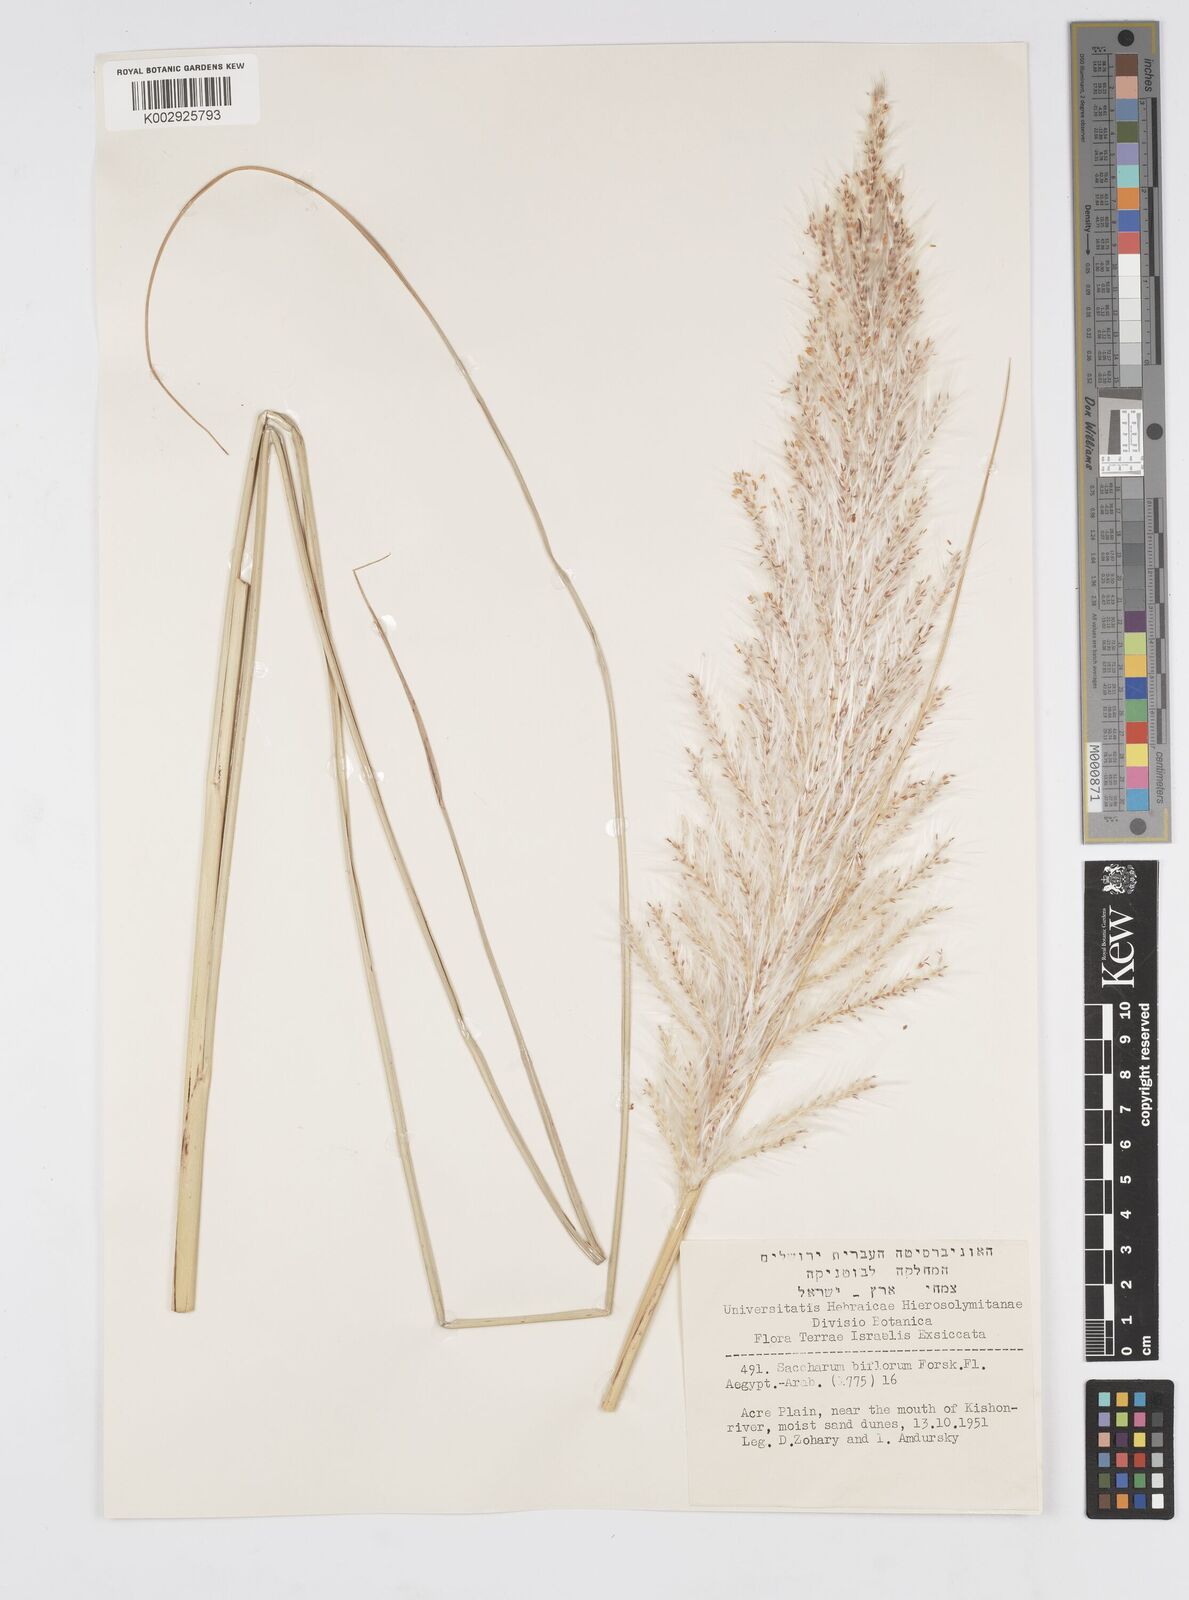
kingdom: Plantae
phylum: Tracheophyta
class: Liliopsida
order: Poales
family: Poaceae
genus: Saccharum
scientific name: Saccharum spontaneum
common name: Wild sugarcane
